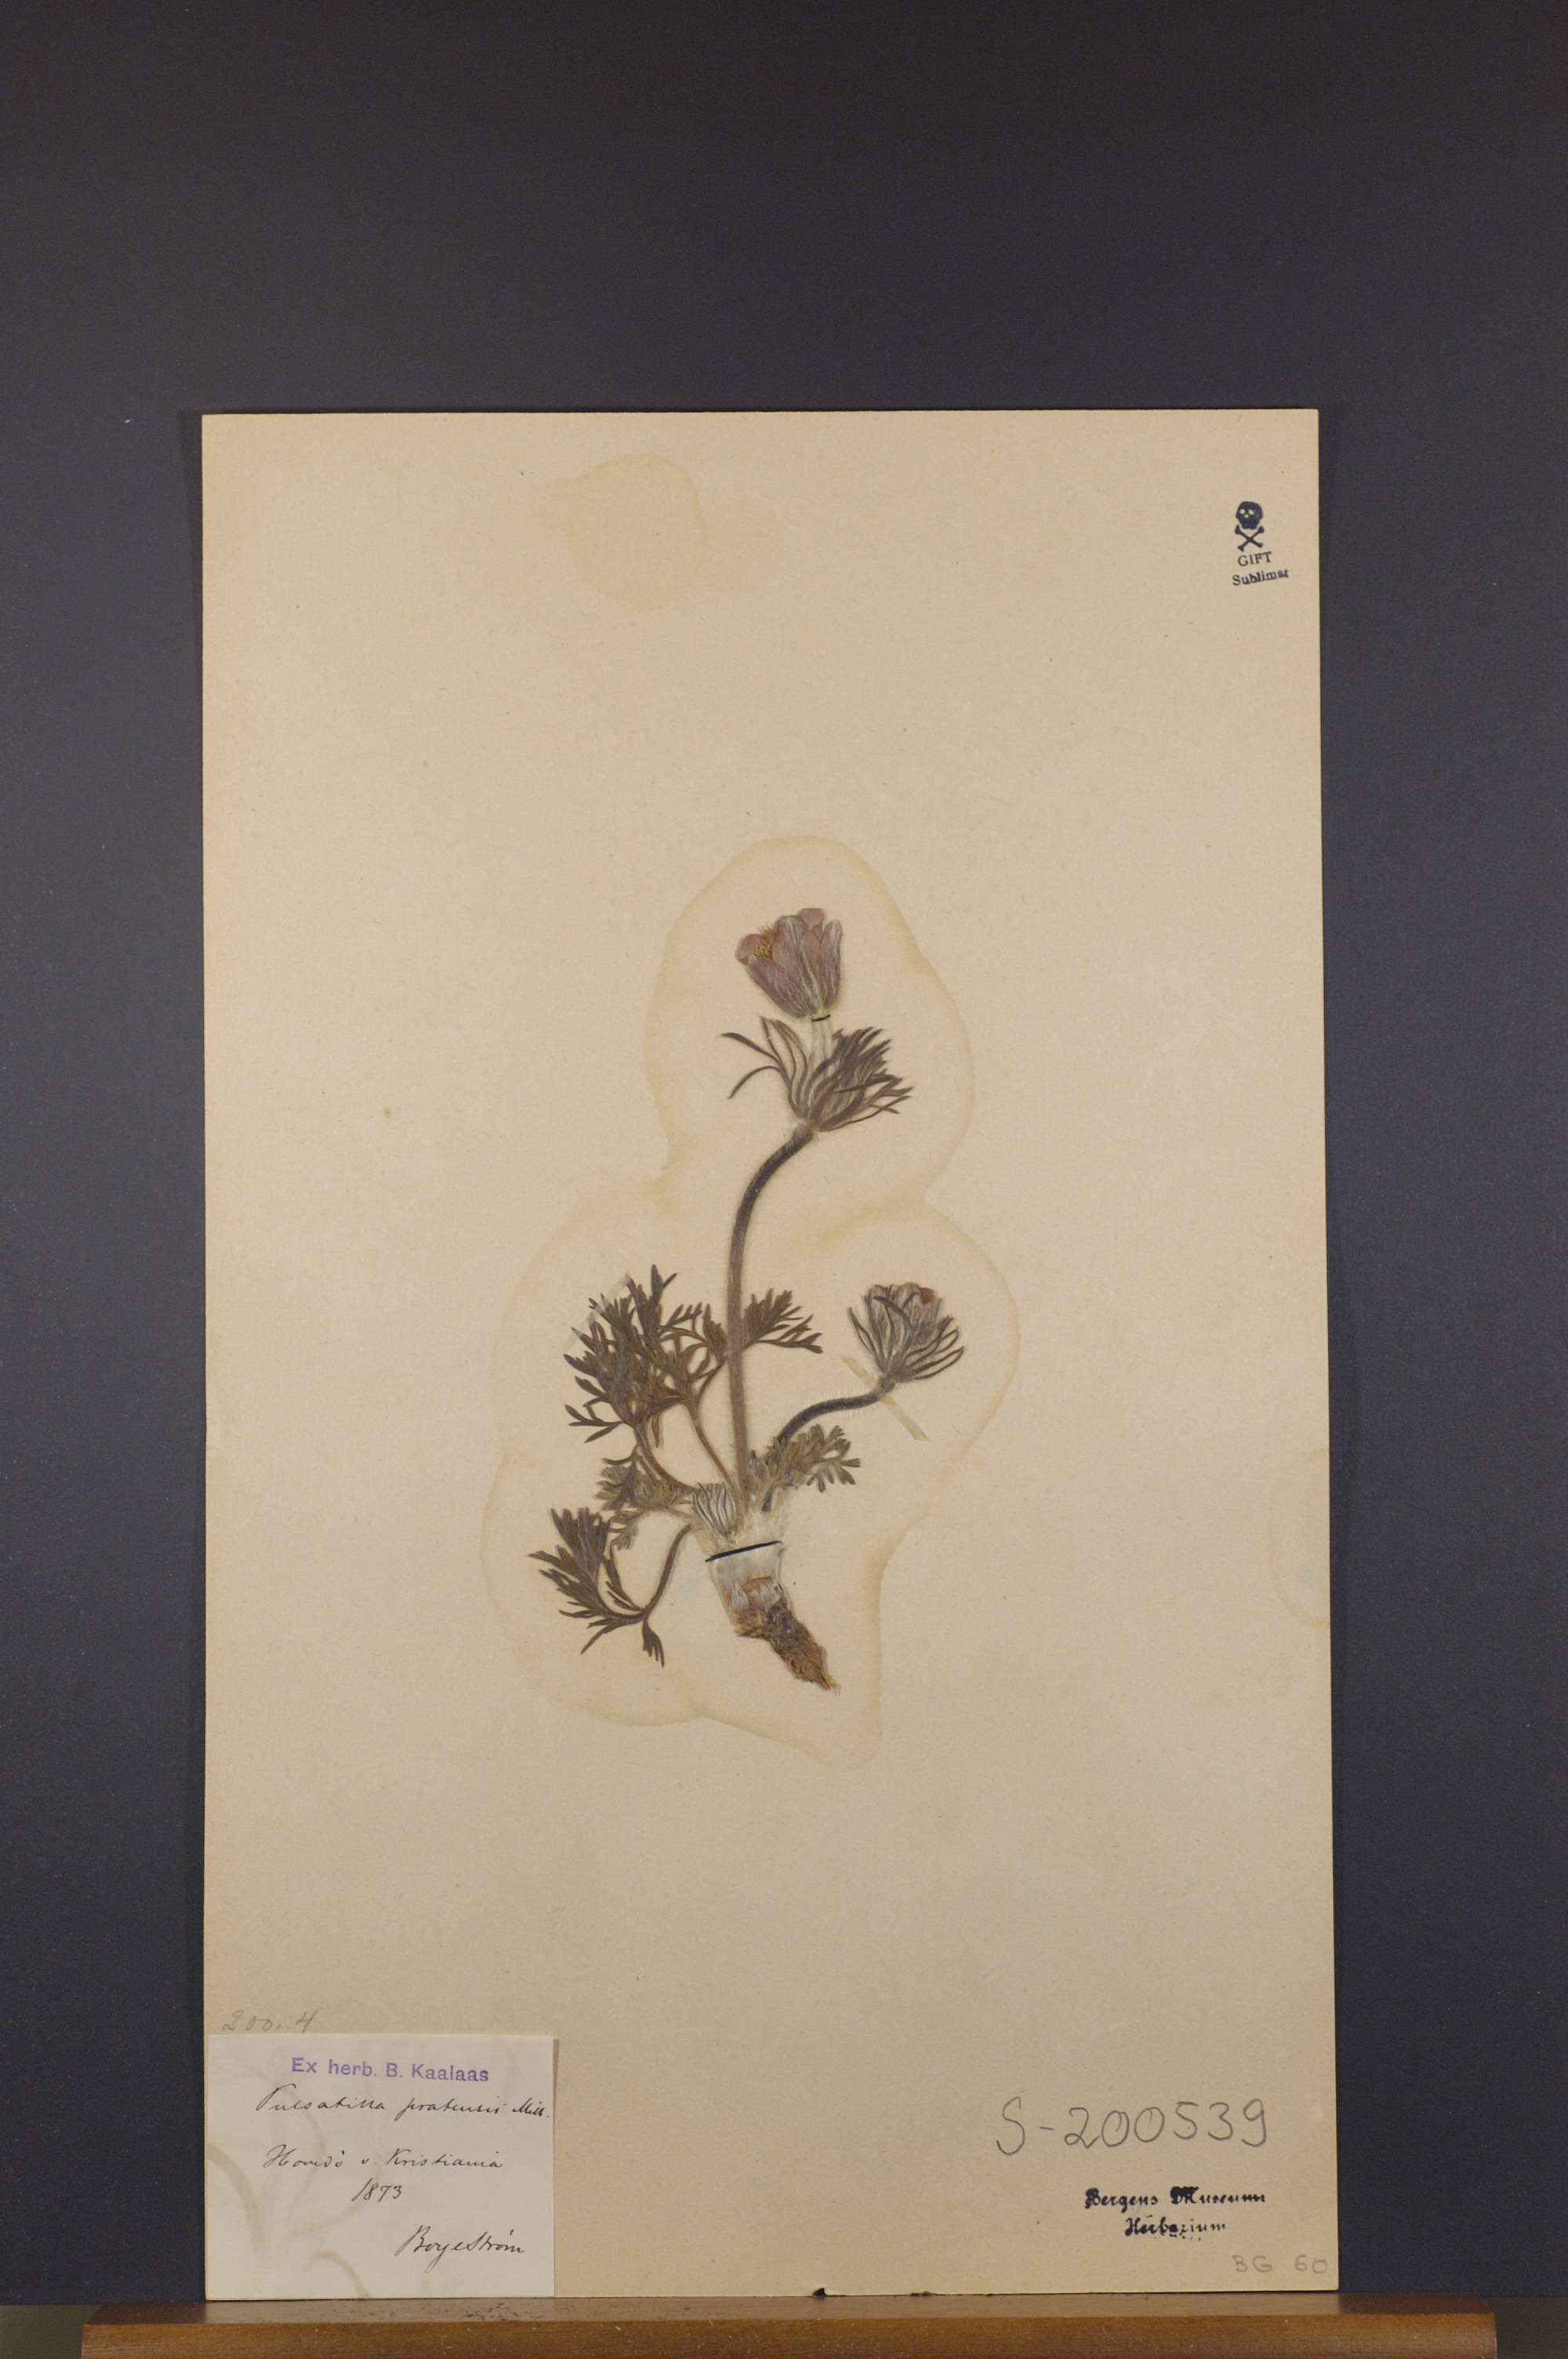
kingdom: Plantae
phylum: Tracheophyta
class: Magnoliopsida
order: Ranunculales
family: Ranunculaceae
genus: Pulsatilla
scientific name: Pulsatilla pratensis
